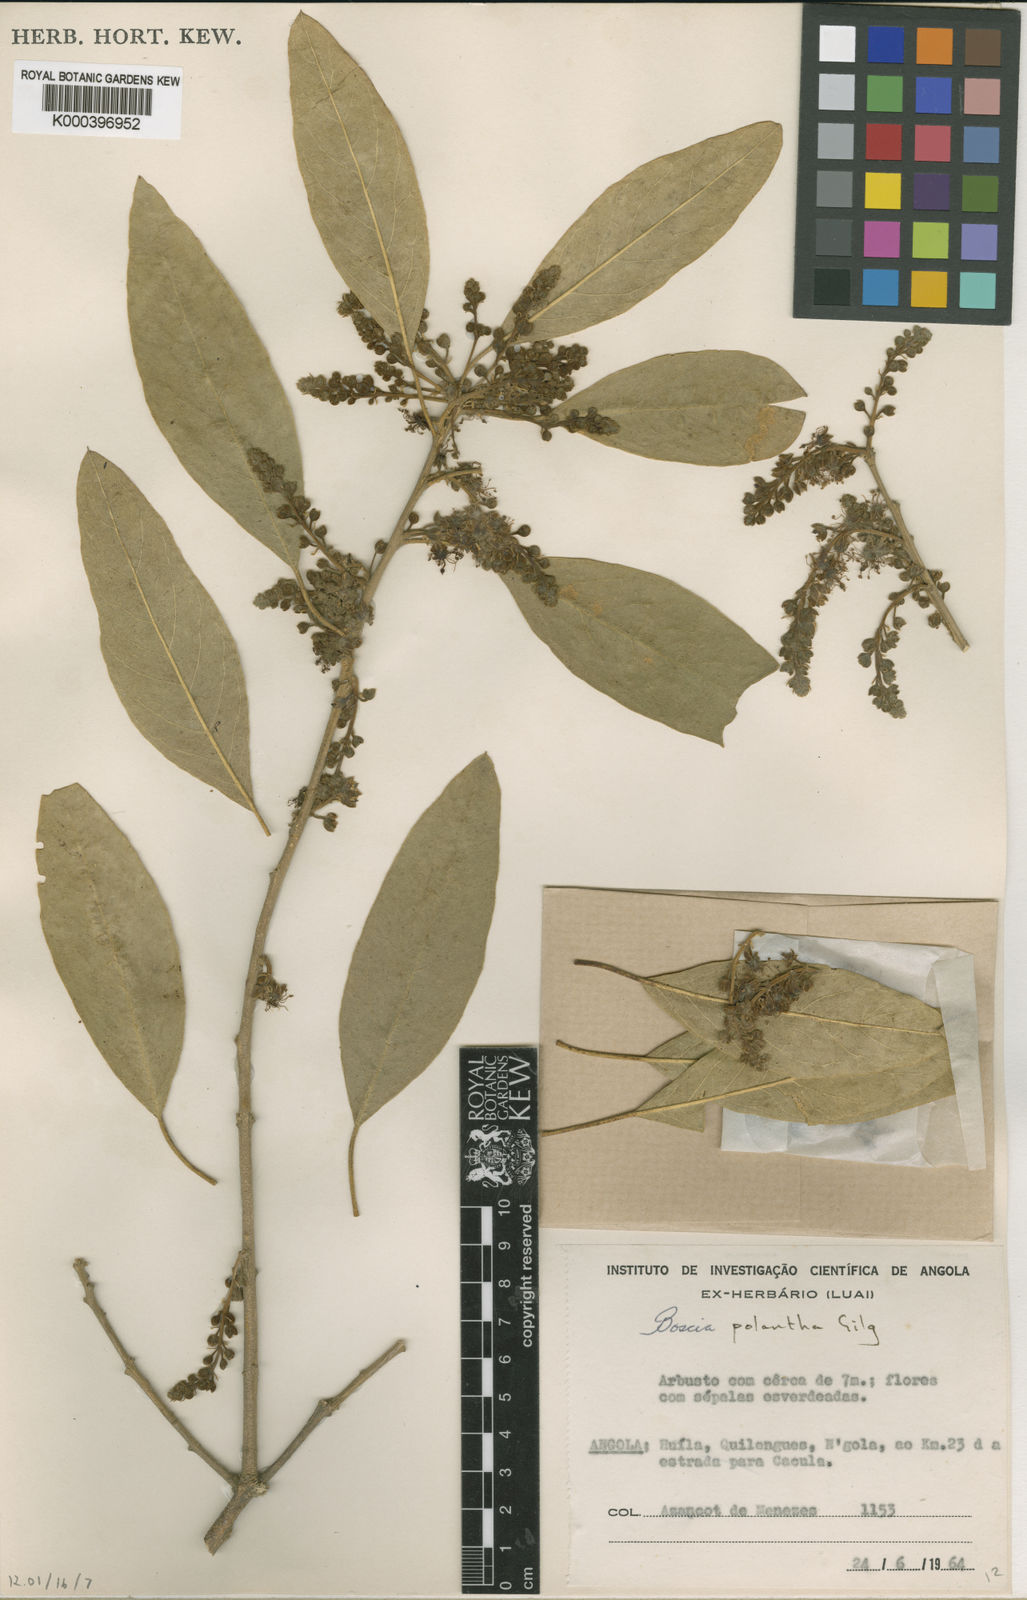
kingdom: Plantae
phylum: Tracheophyta
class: Magnoliopsida
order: Brassicales
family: Capparaceae
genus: Boscia
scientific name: Boscia polyantha
